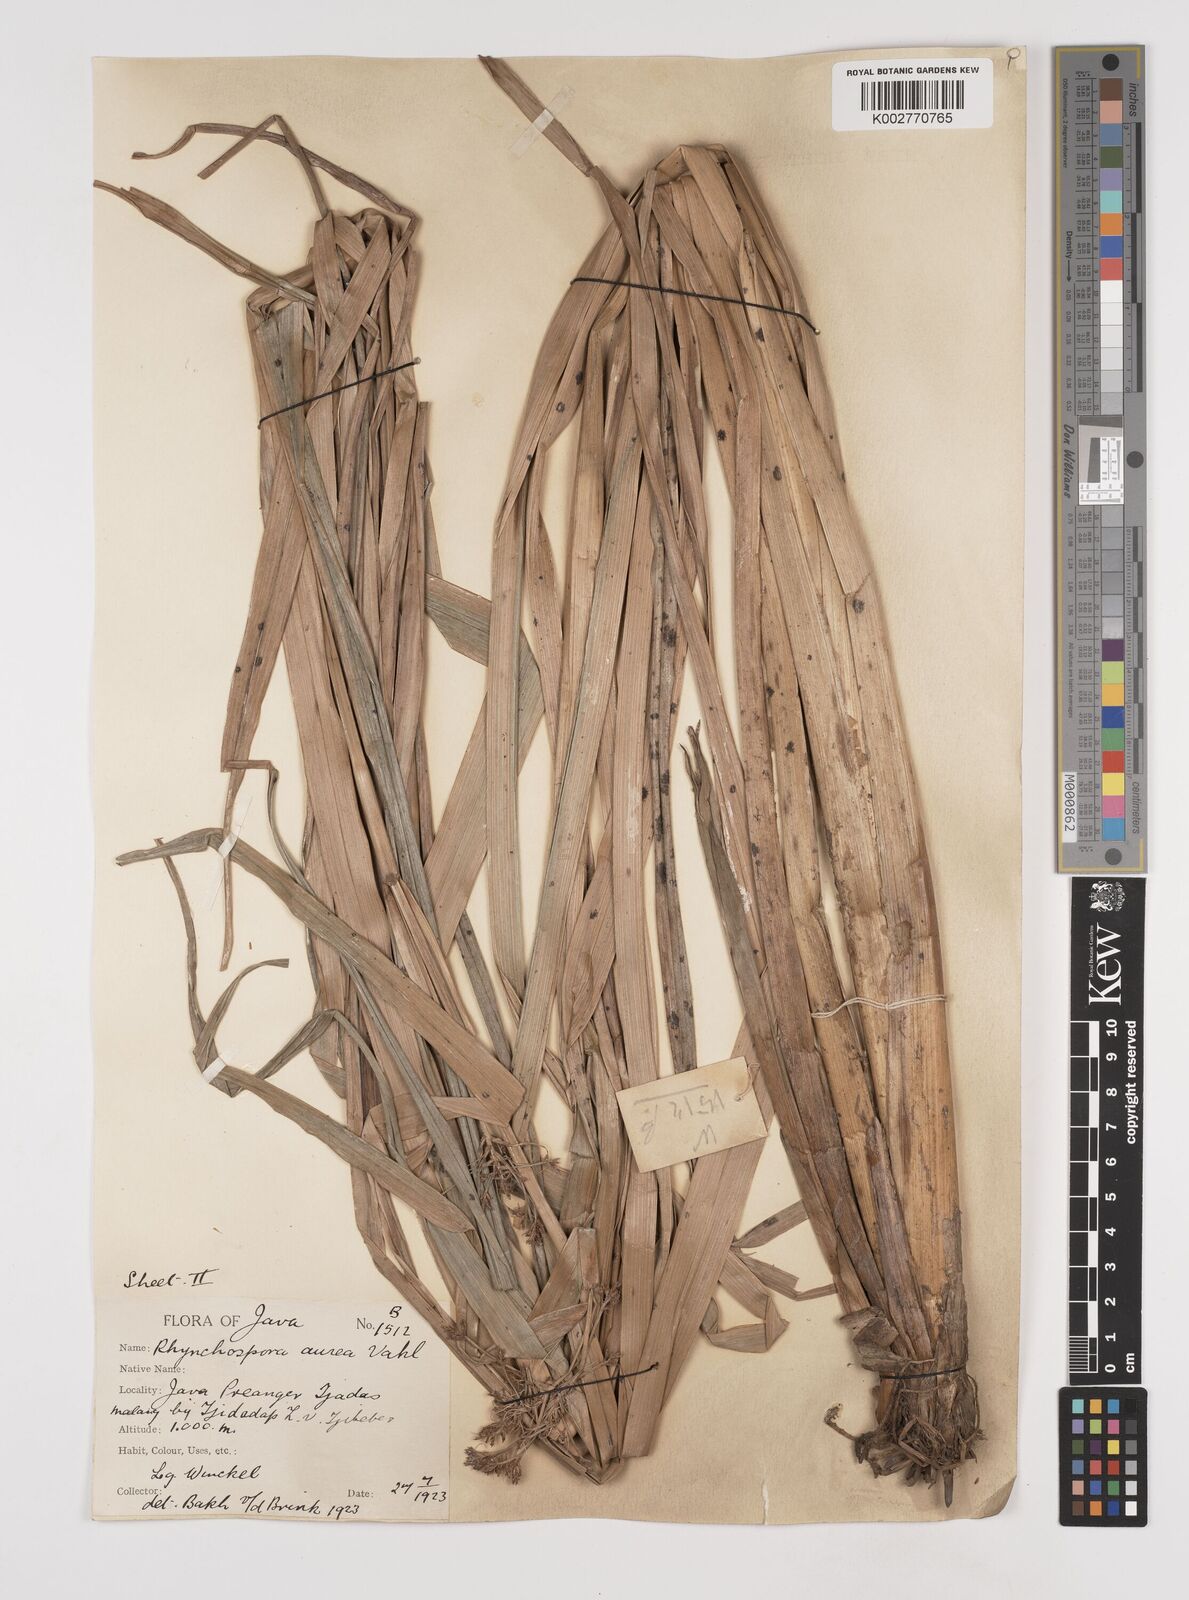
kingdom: Plantae
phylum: Tracheophyta
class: Liliopsida
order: Poales
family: Cyperaceae
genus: Rhynchospora
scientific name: Rhynchospora corymbosa
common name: Golden beak sedge
